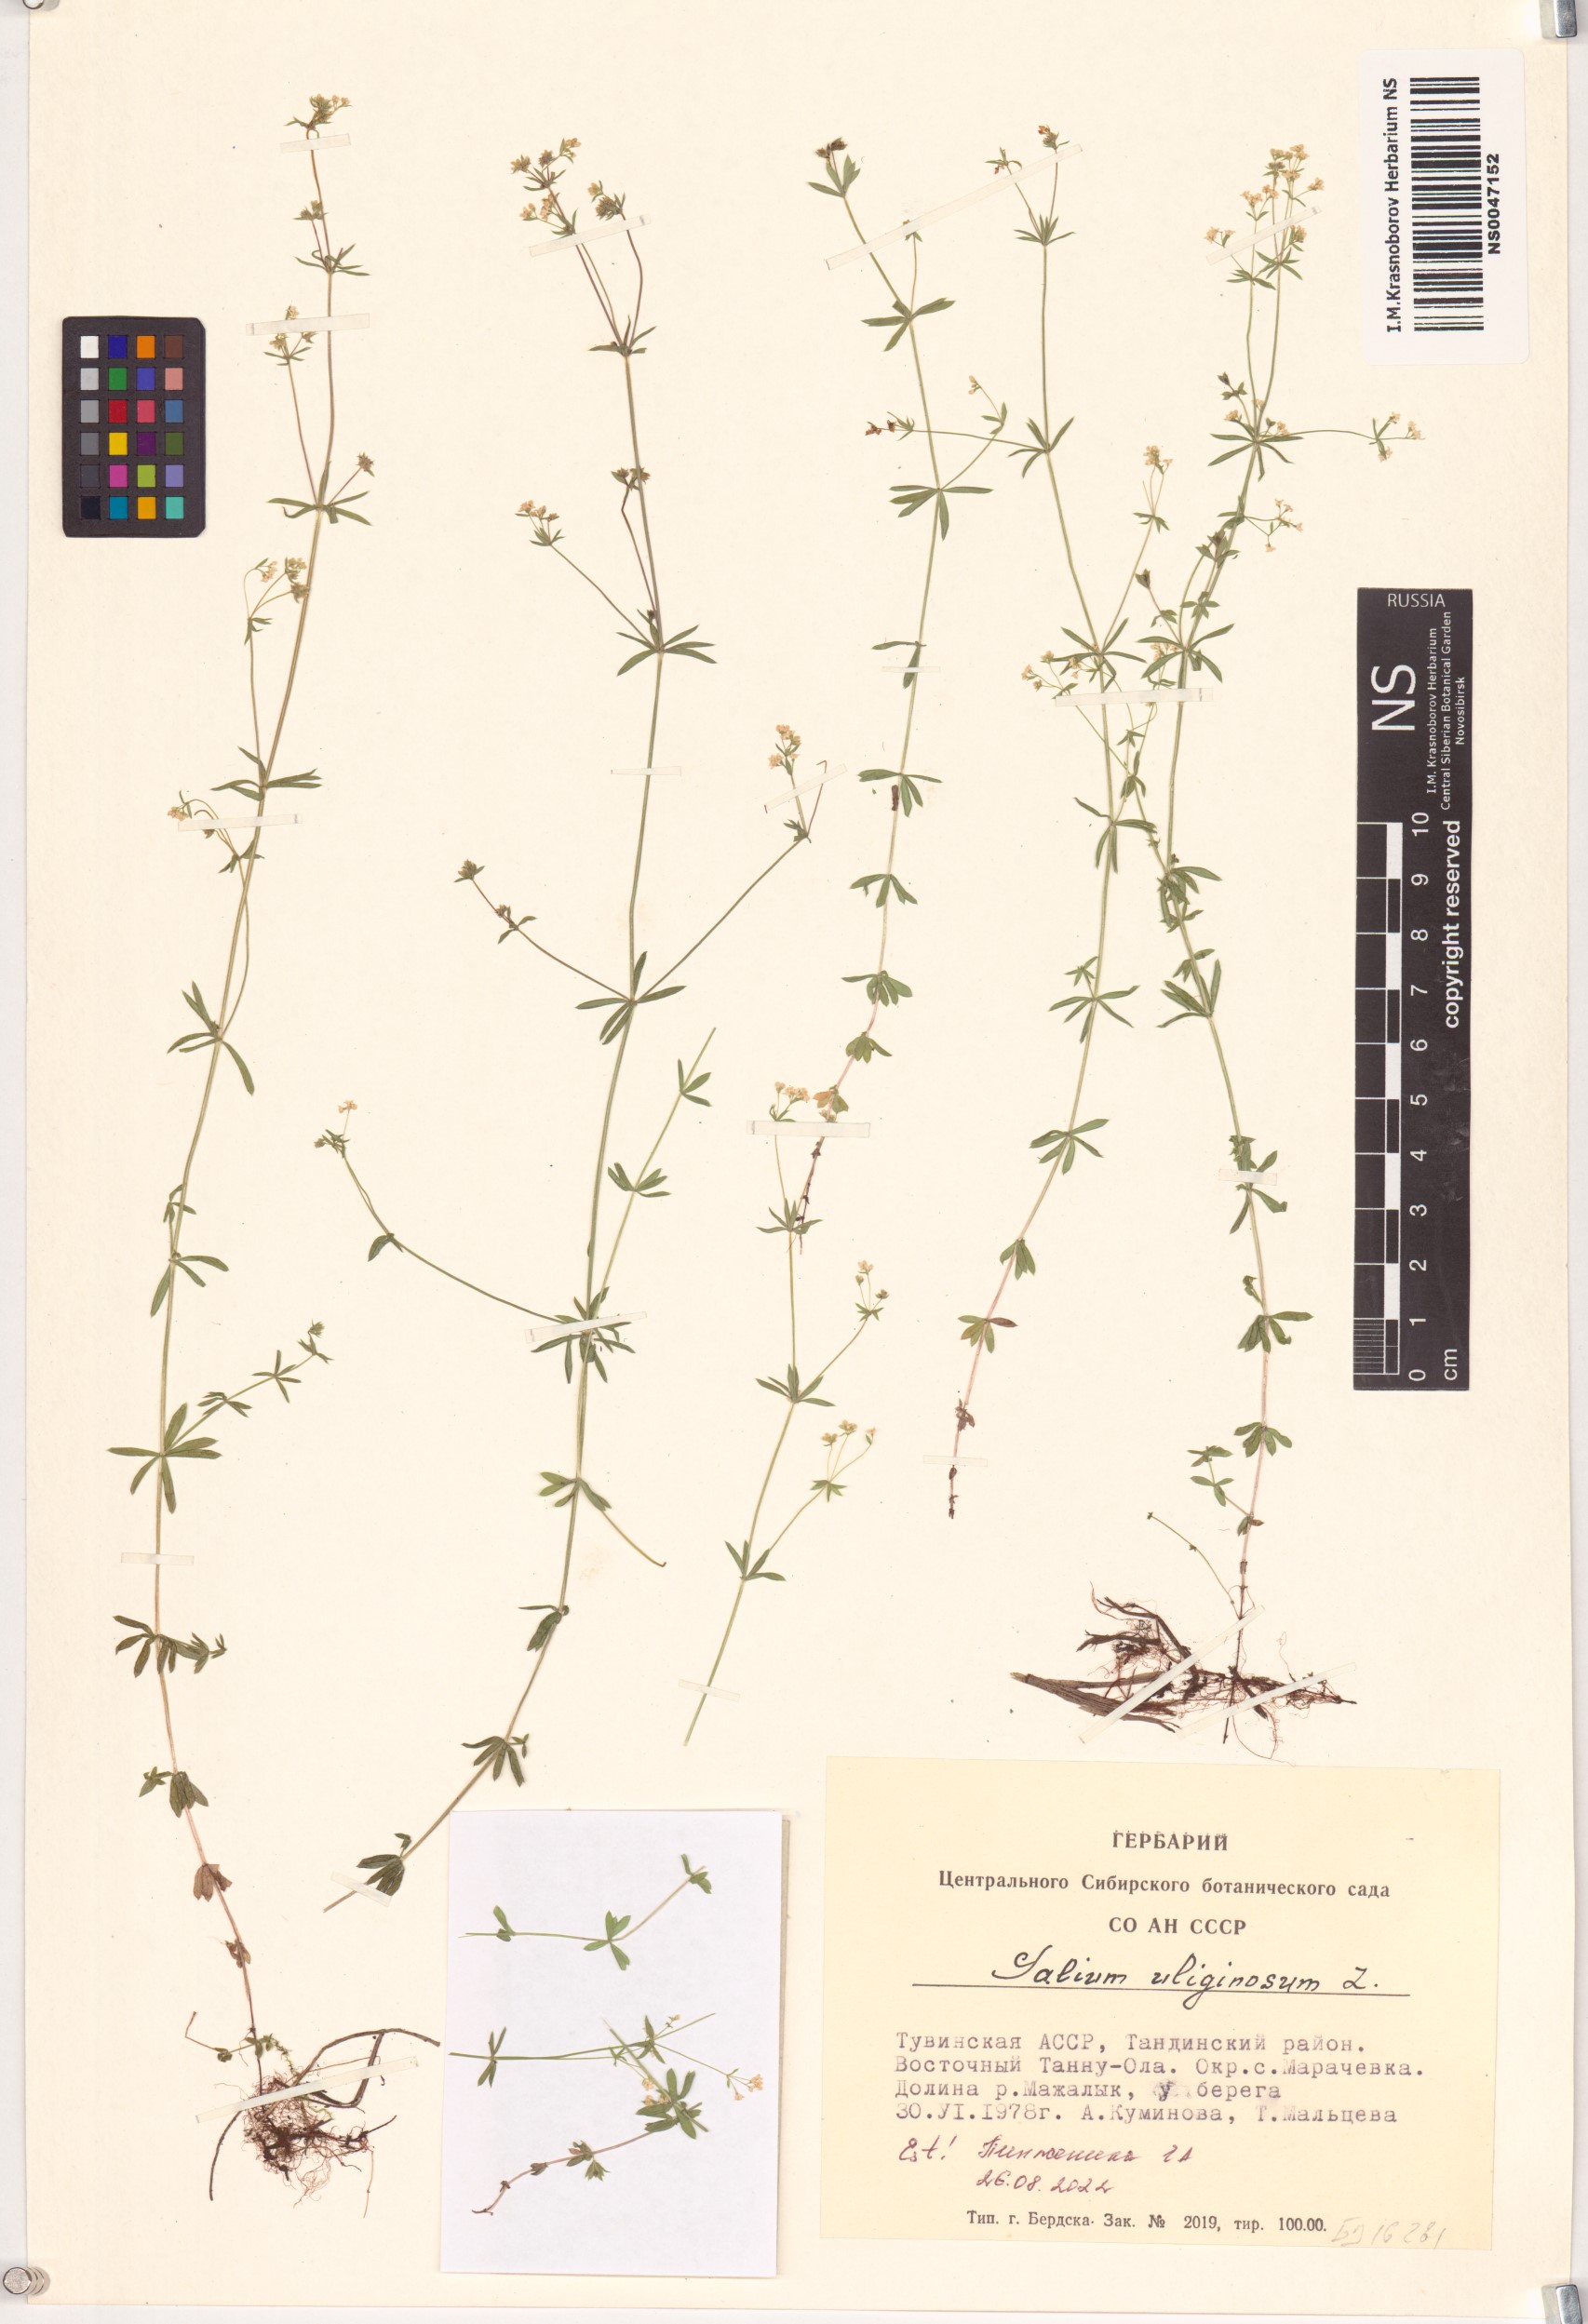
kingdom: Plantae
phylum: Tracheophyta
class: Magnoliopsida
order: Gentianales
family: Rubiaceae
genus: Galium
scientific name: Galium uliginosum
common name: Fen bedstraw
